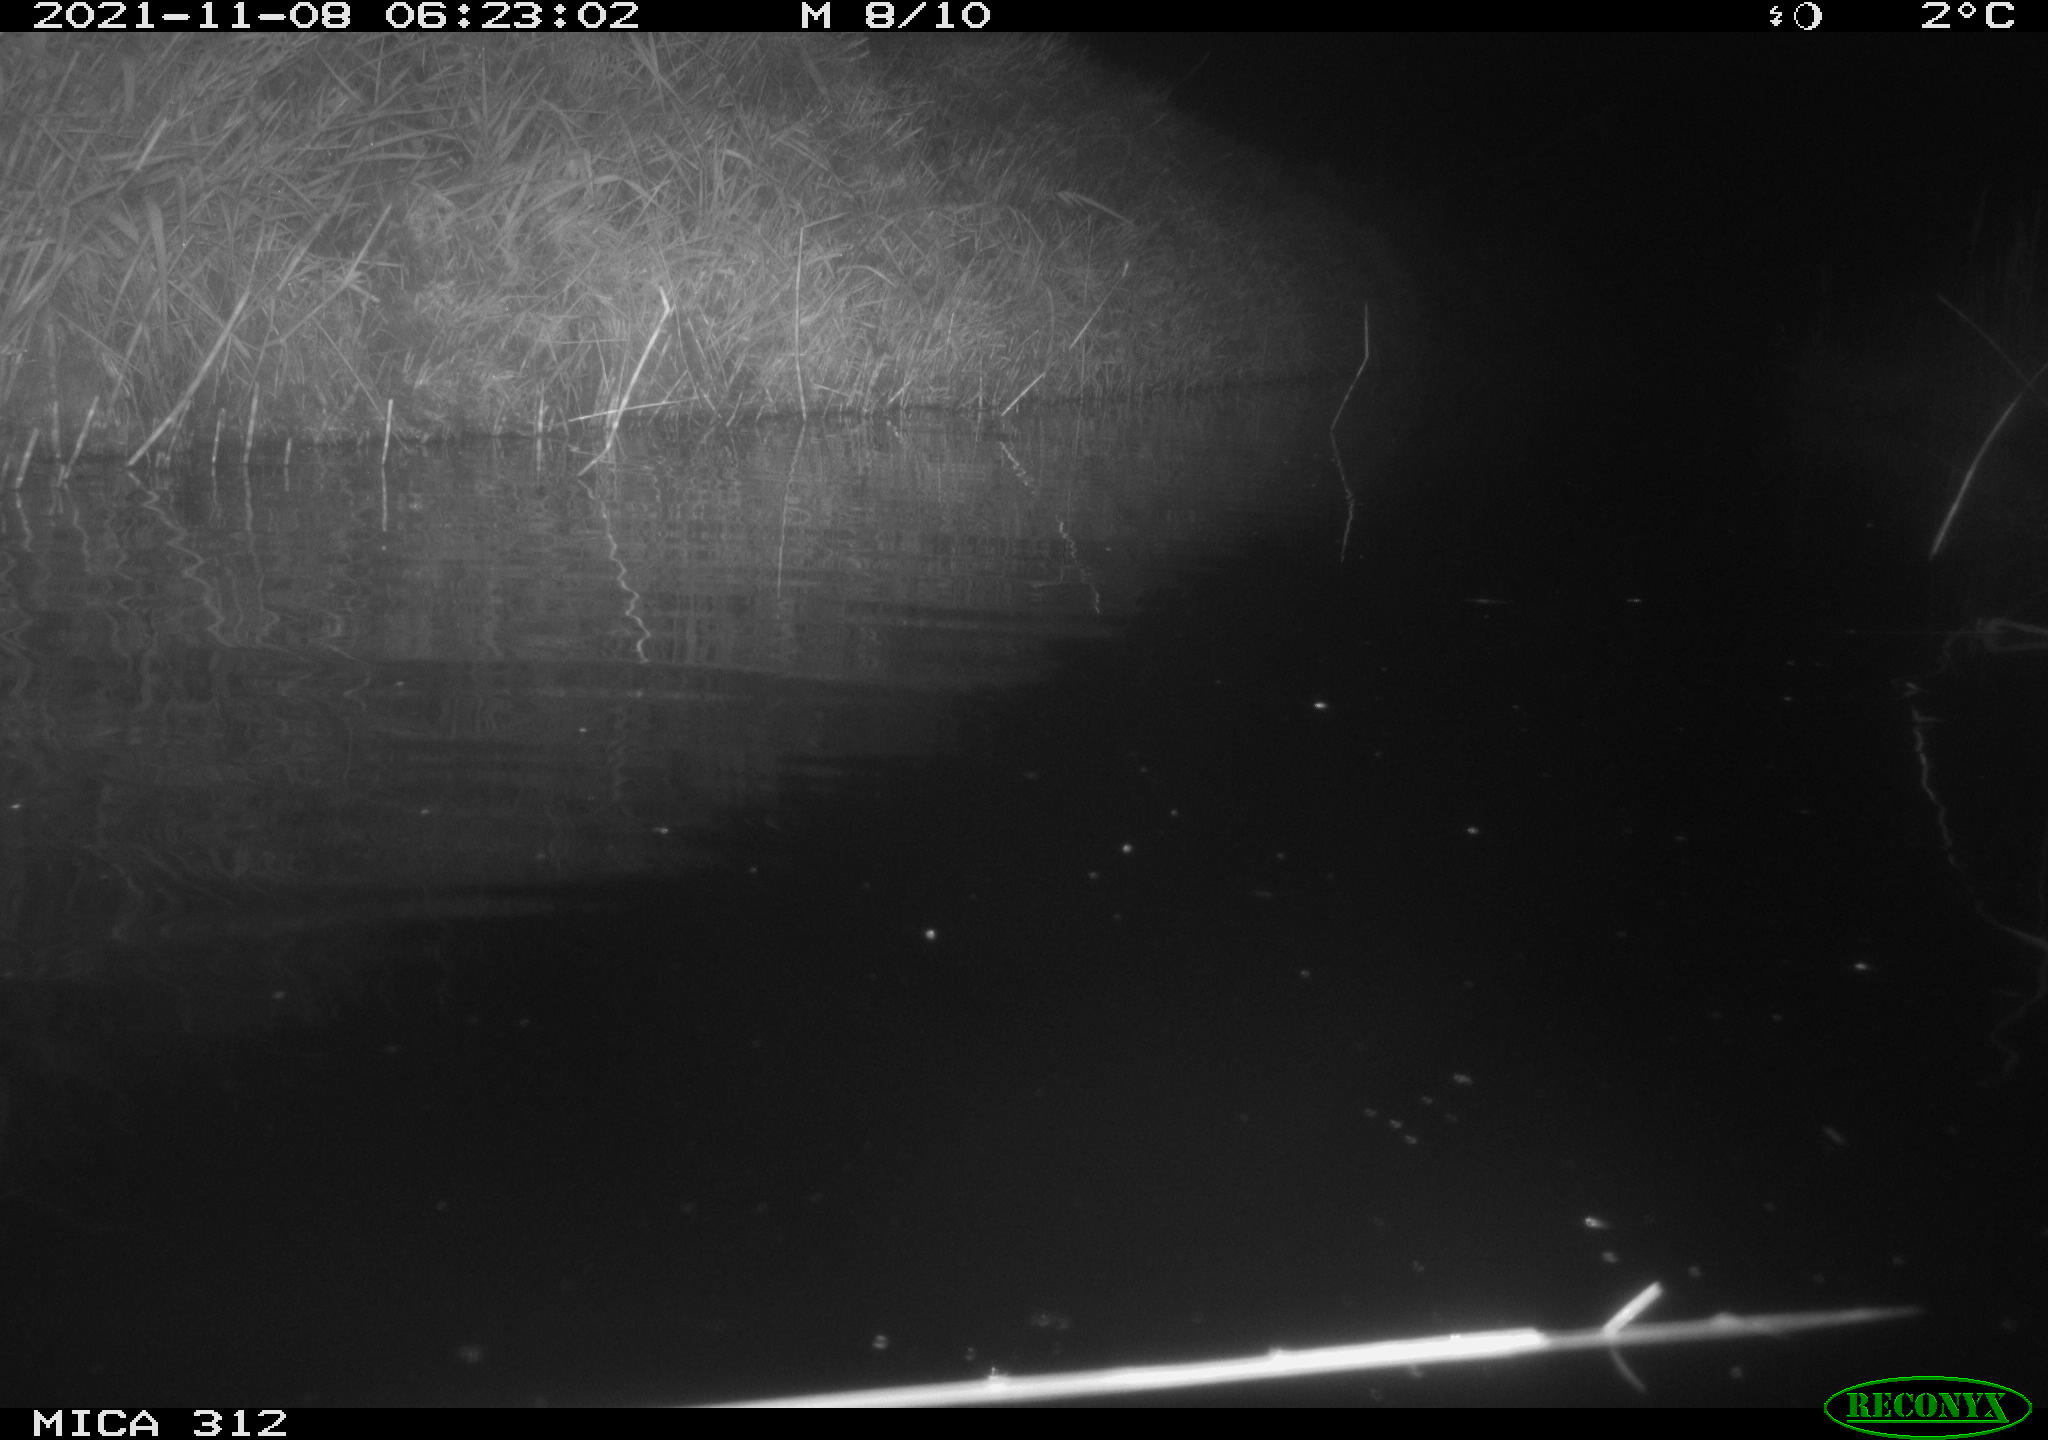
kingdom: Animalia
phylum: Chordata
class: Mammalia
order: Rodentia
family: Muridae
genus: Rattus
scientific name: Rattus norvegicus
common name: Brown rat
